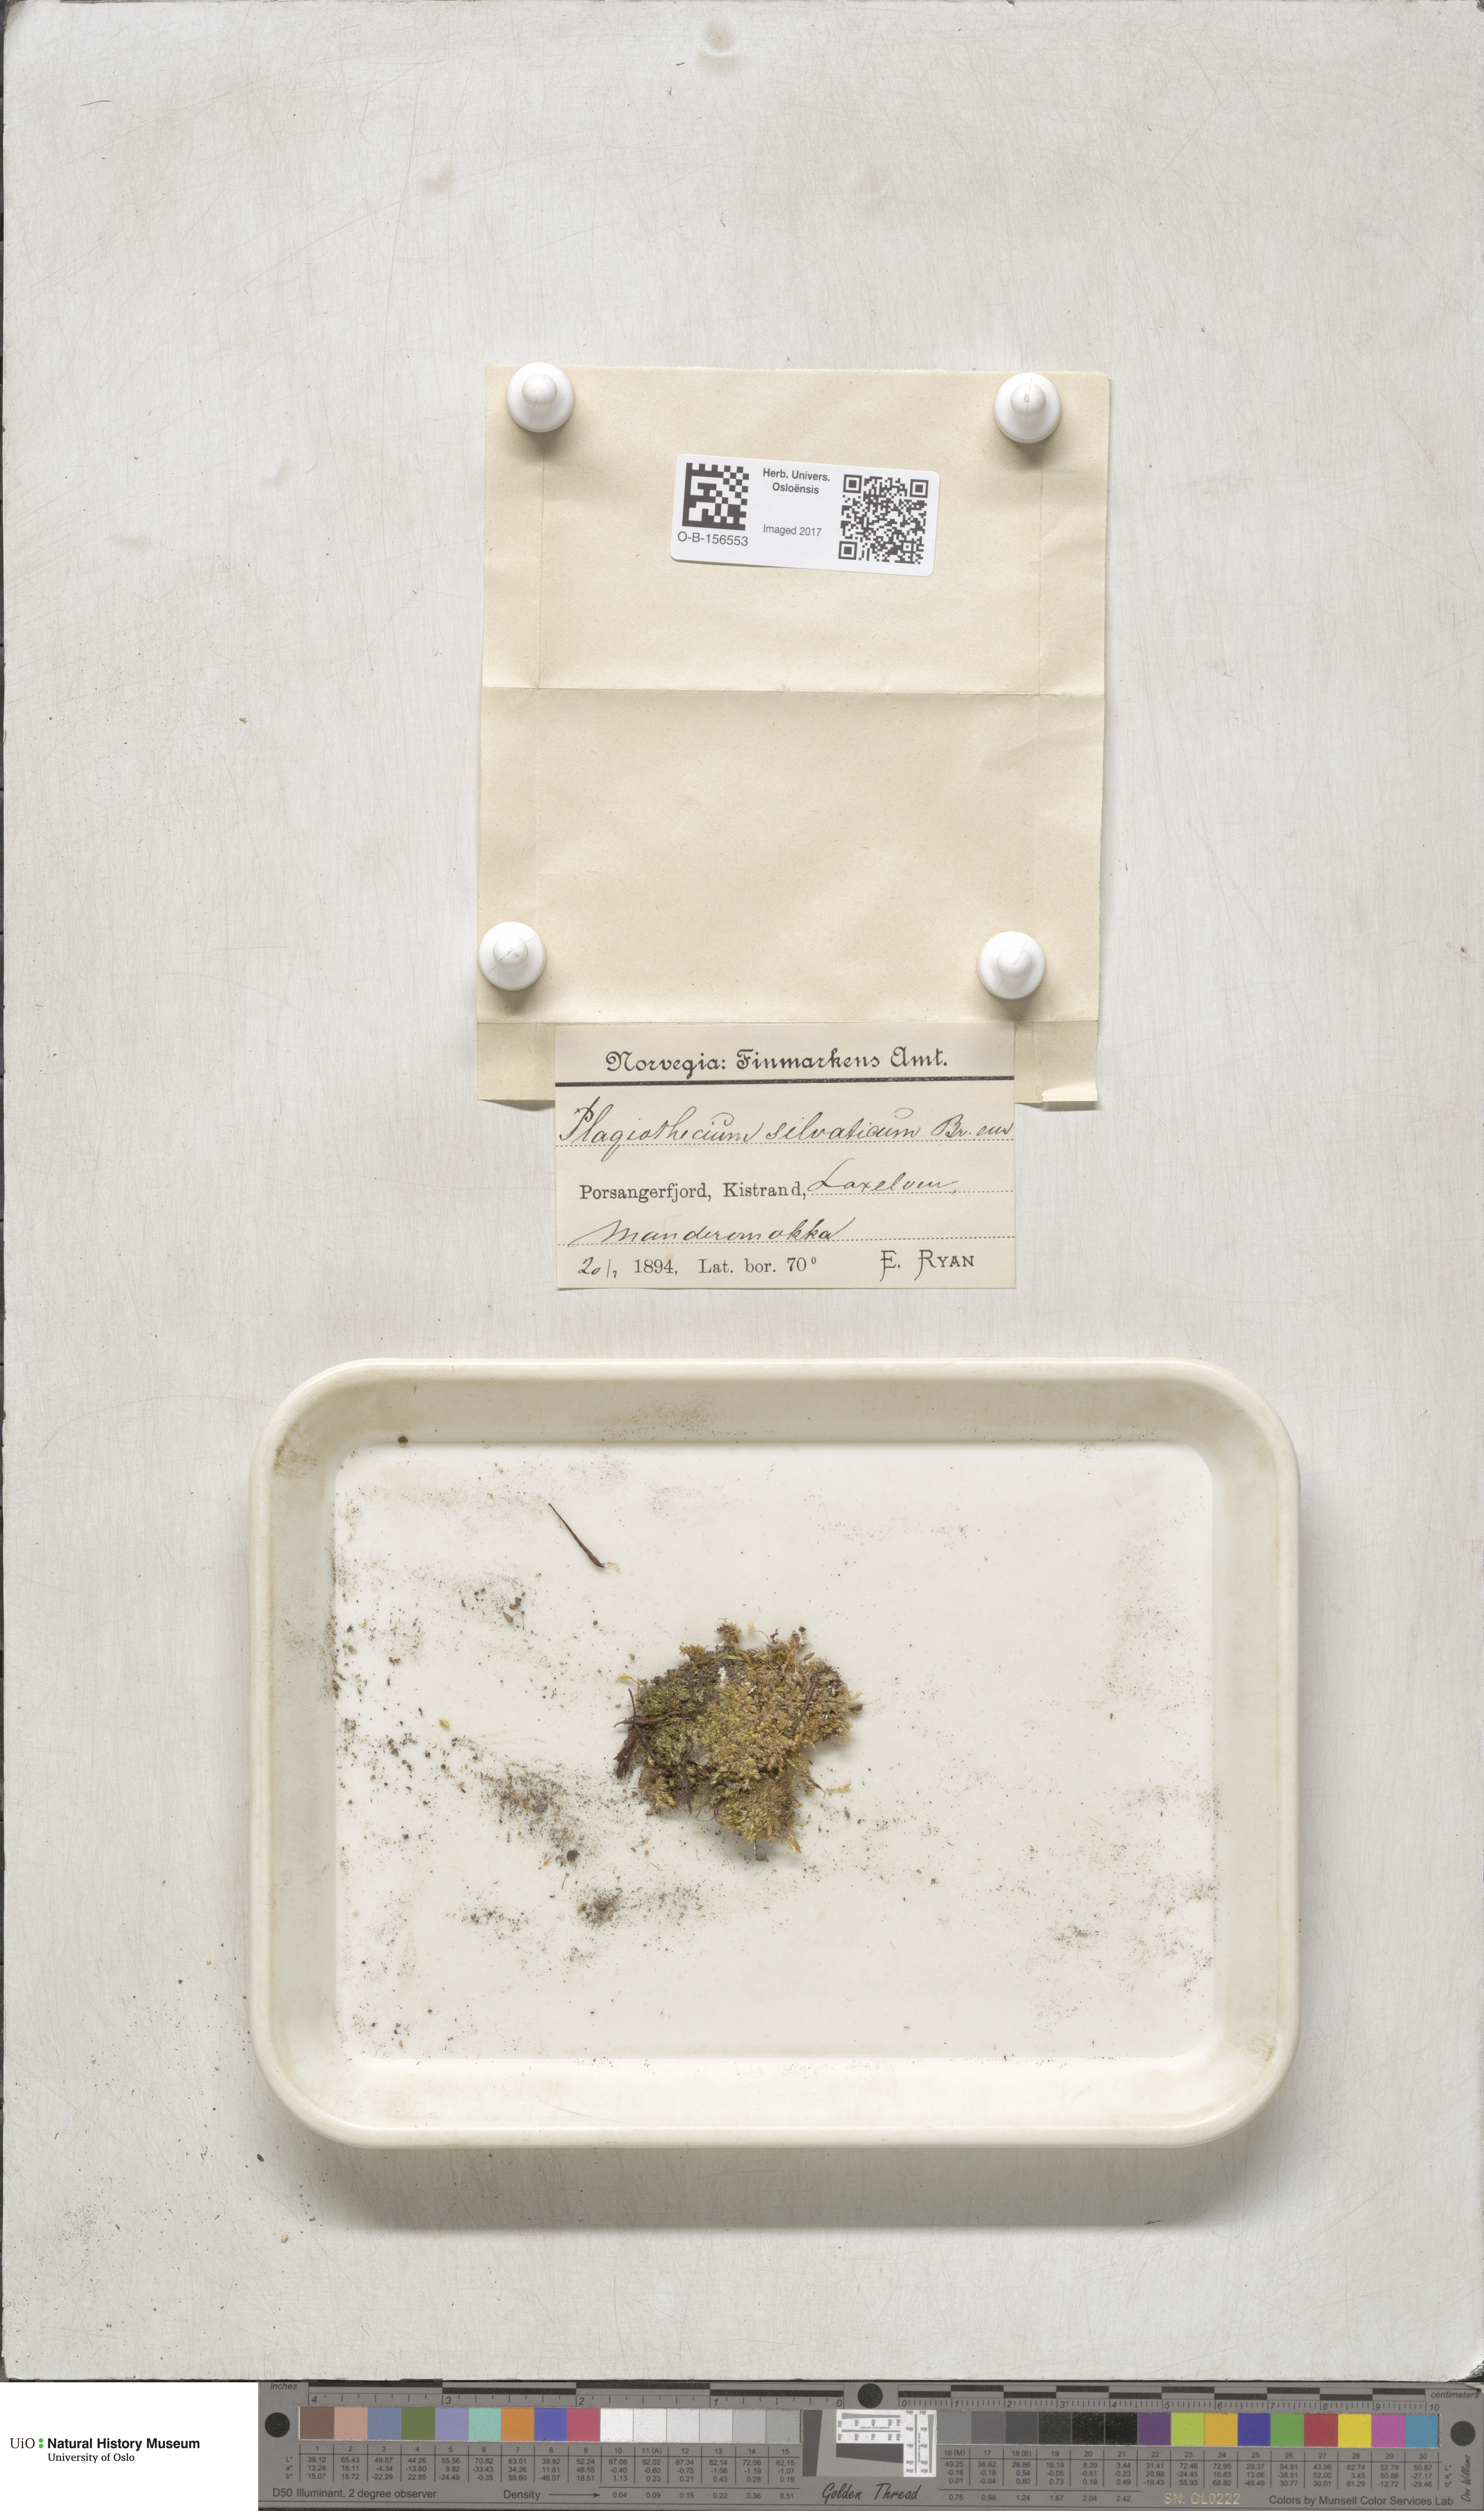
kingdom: Plantae
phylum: Bryophyta
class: Bryopsida
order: Hypnales
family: Plagiotheciaceae
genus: Plagiothecium
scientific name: Plagiothecium nemorale
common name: Woodsy silk-moss
